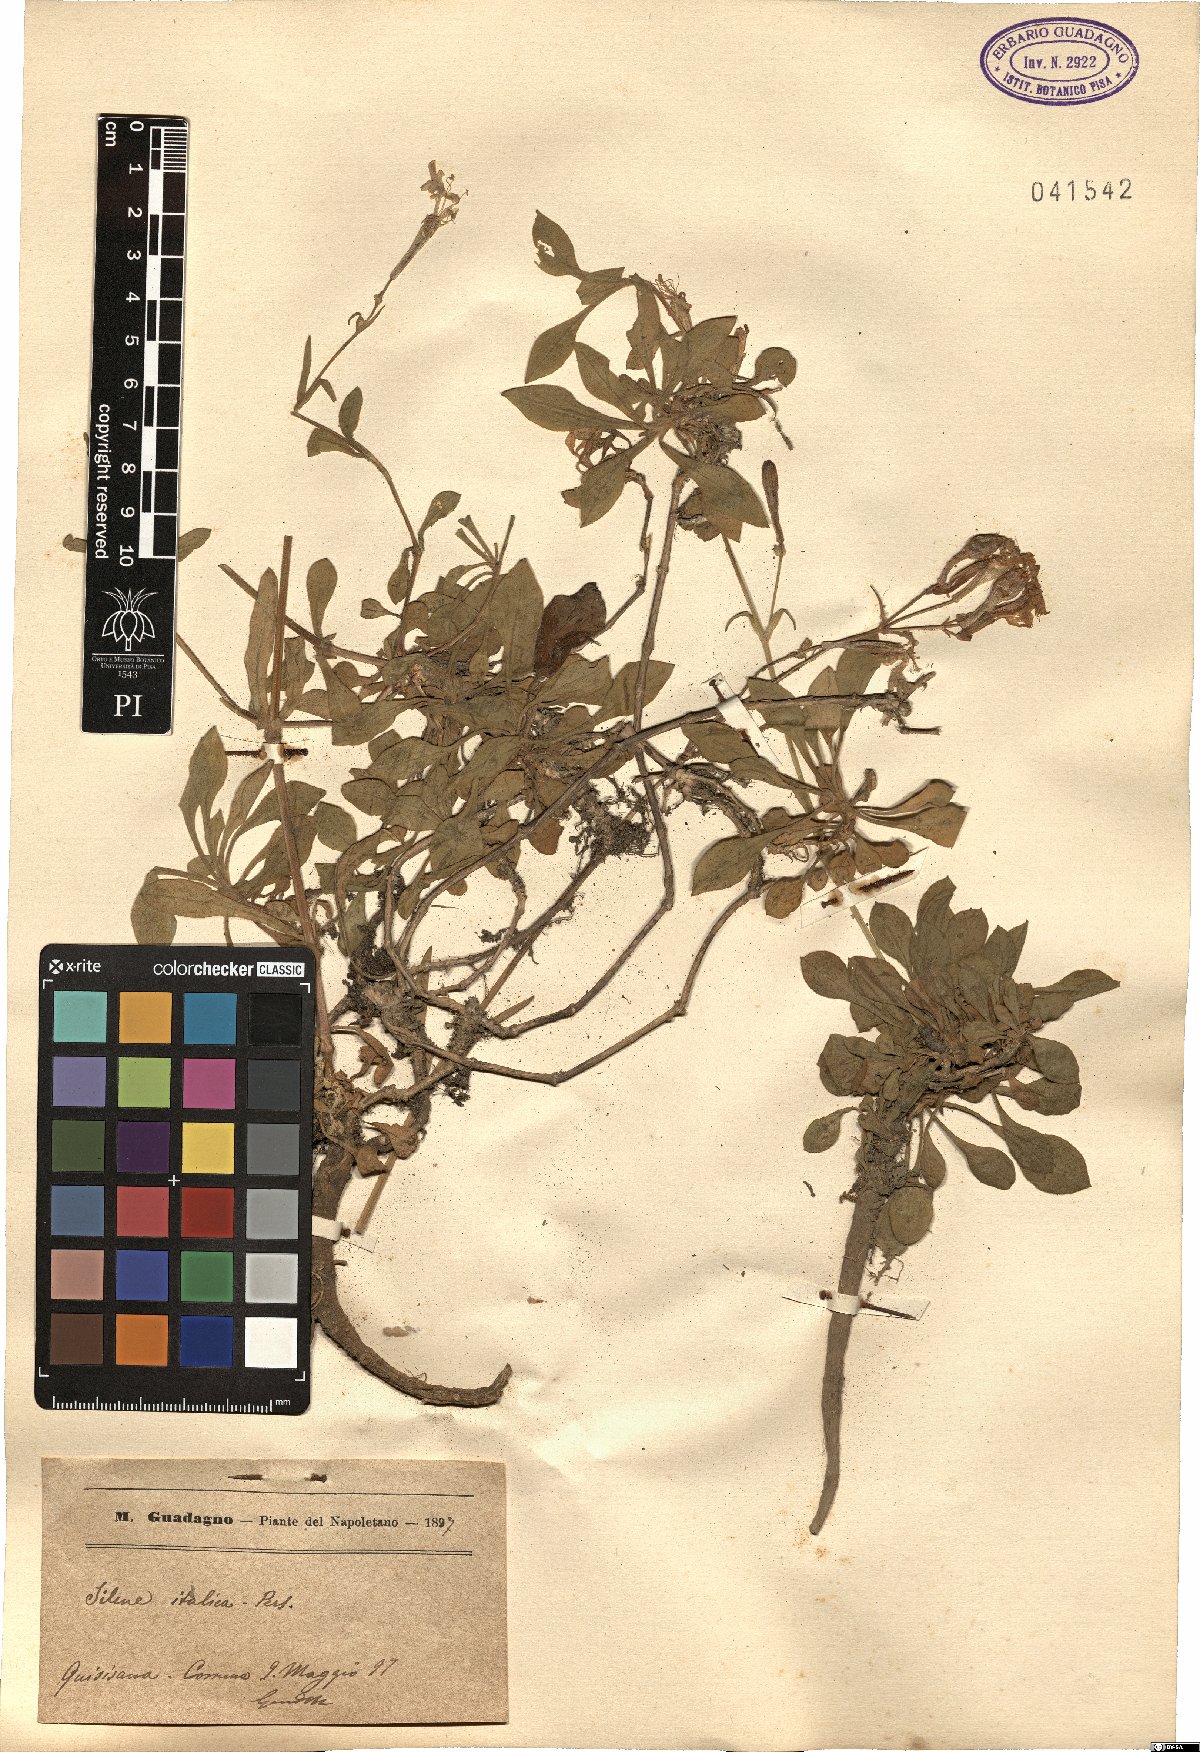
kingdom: Plantae
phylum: Tracheophyta
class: Magnoliopsida
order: Caryophyllales
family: Caryophyllaceae
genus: Silene
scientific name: Silene italica
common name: Italian catchfly
